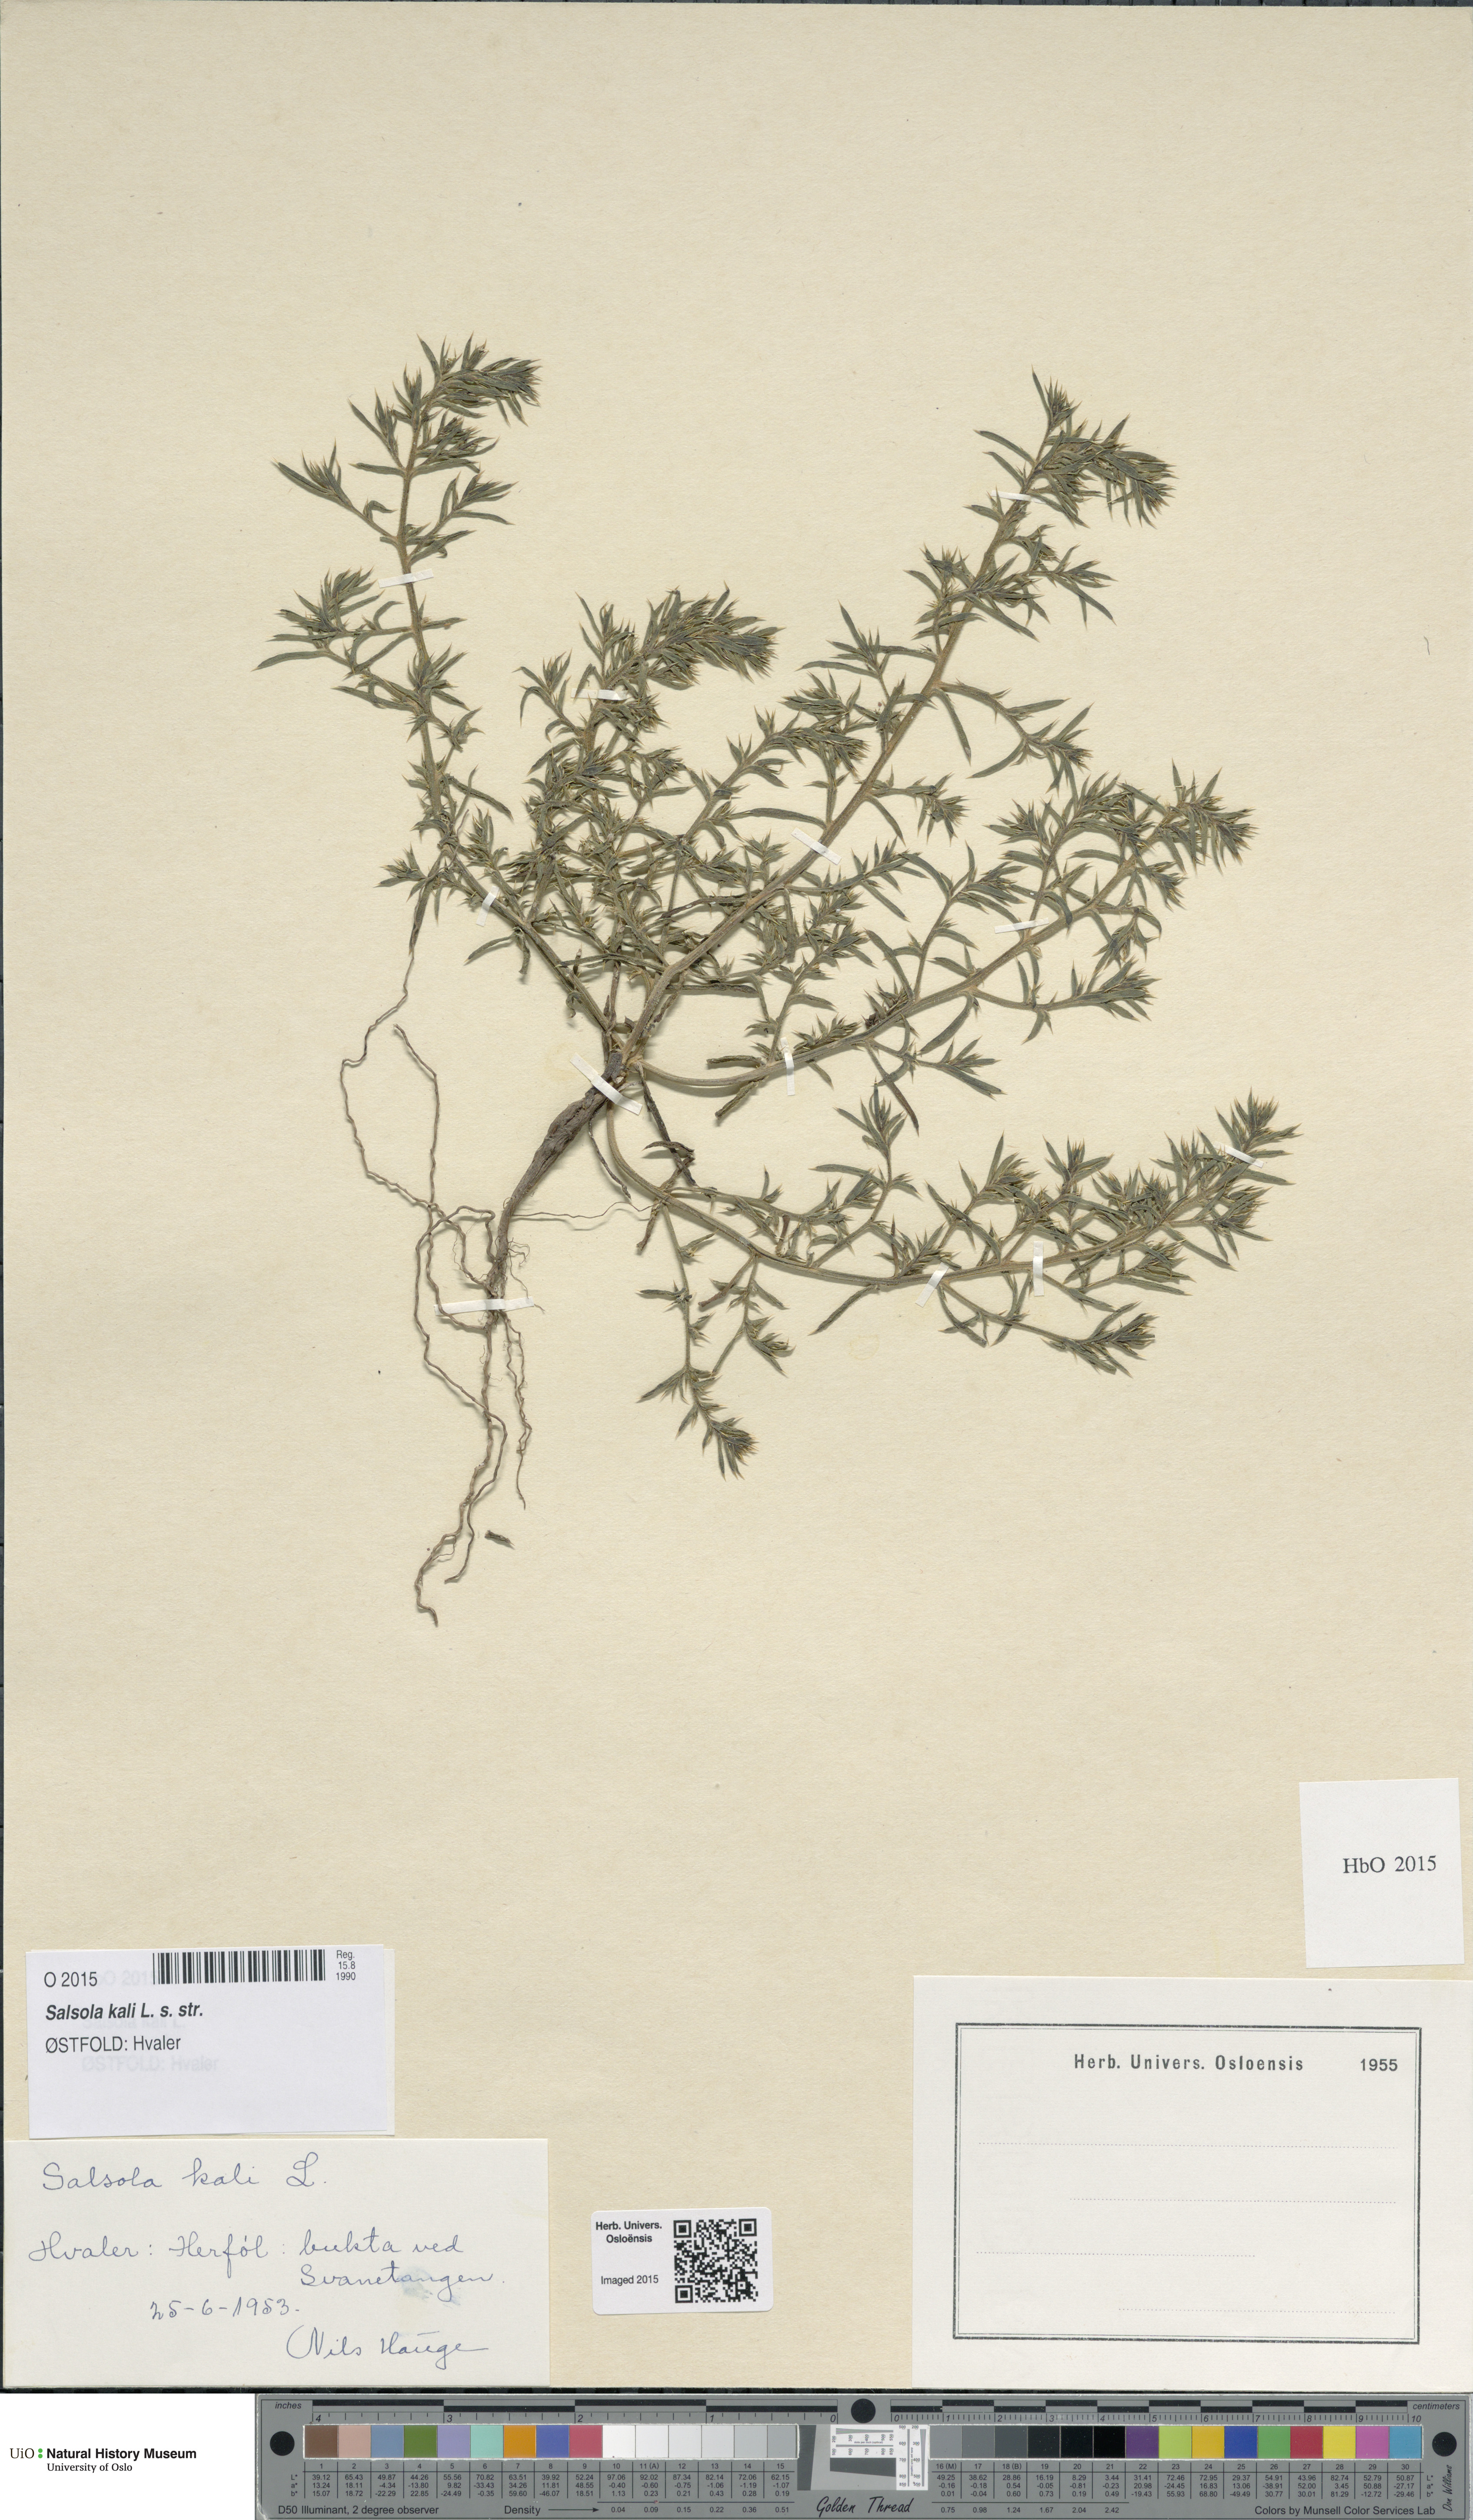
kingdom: Plantae
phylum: Tracheophyta
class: Magnoliopsida
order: Caryophyllales
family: Amaranthaceae
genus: Salsola
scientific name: Salsola kali
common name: Saltwort
